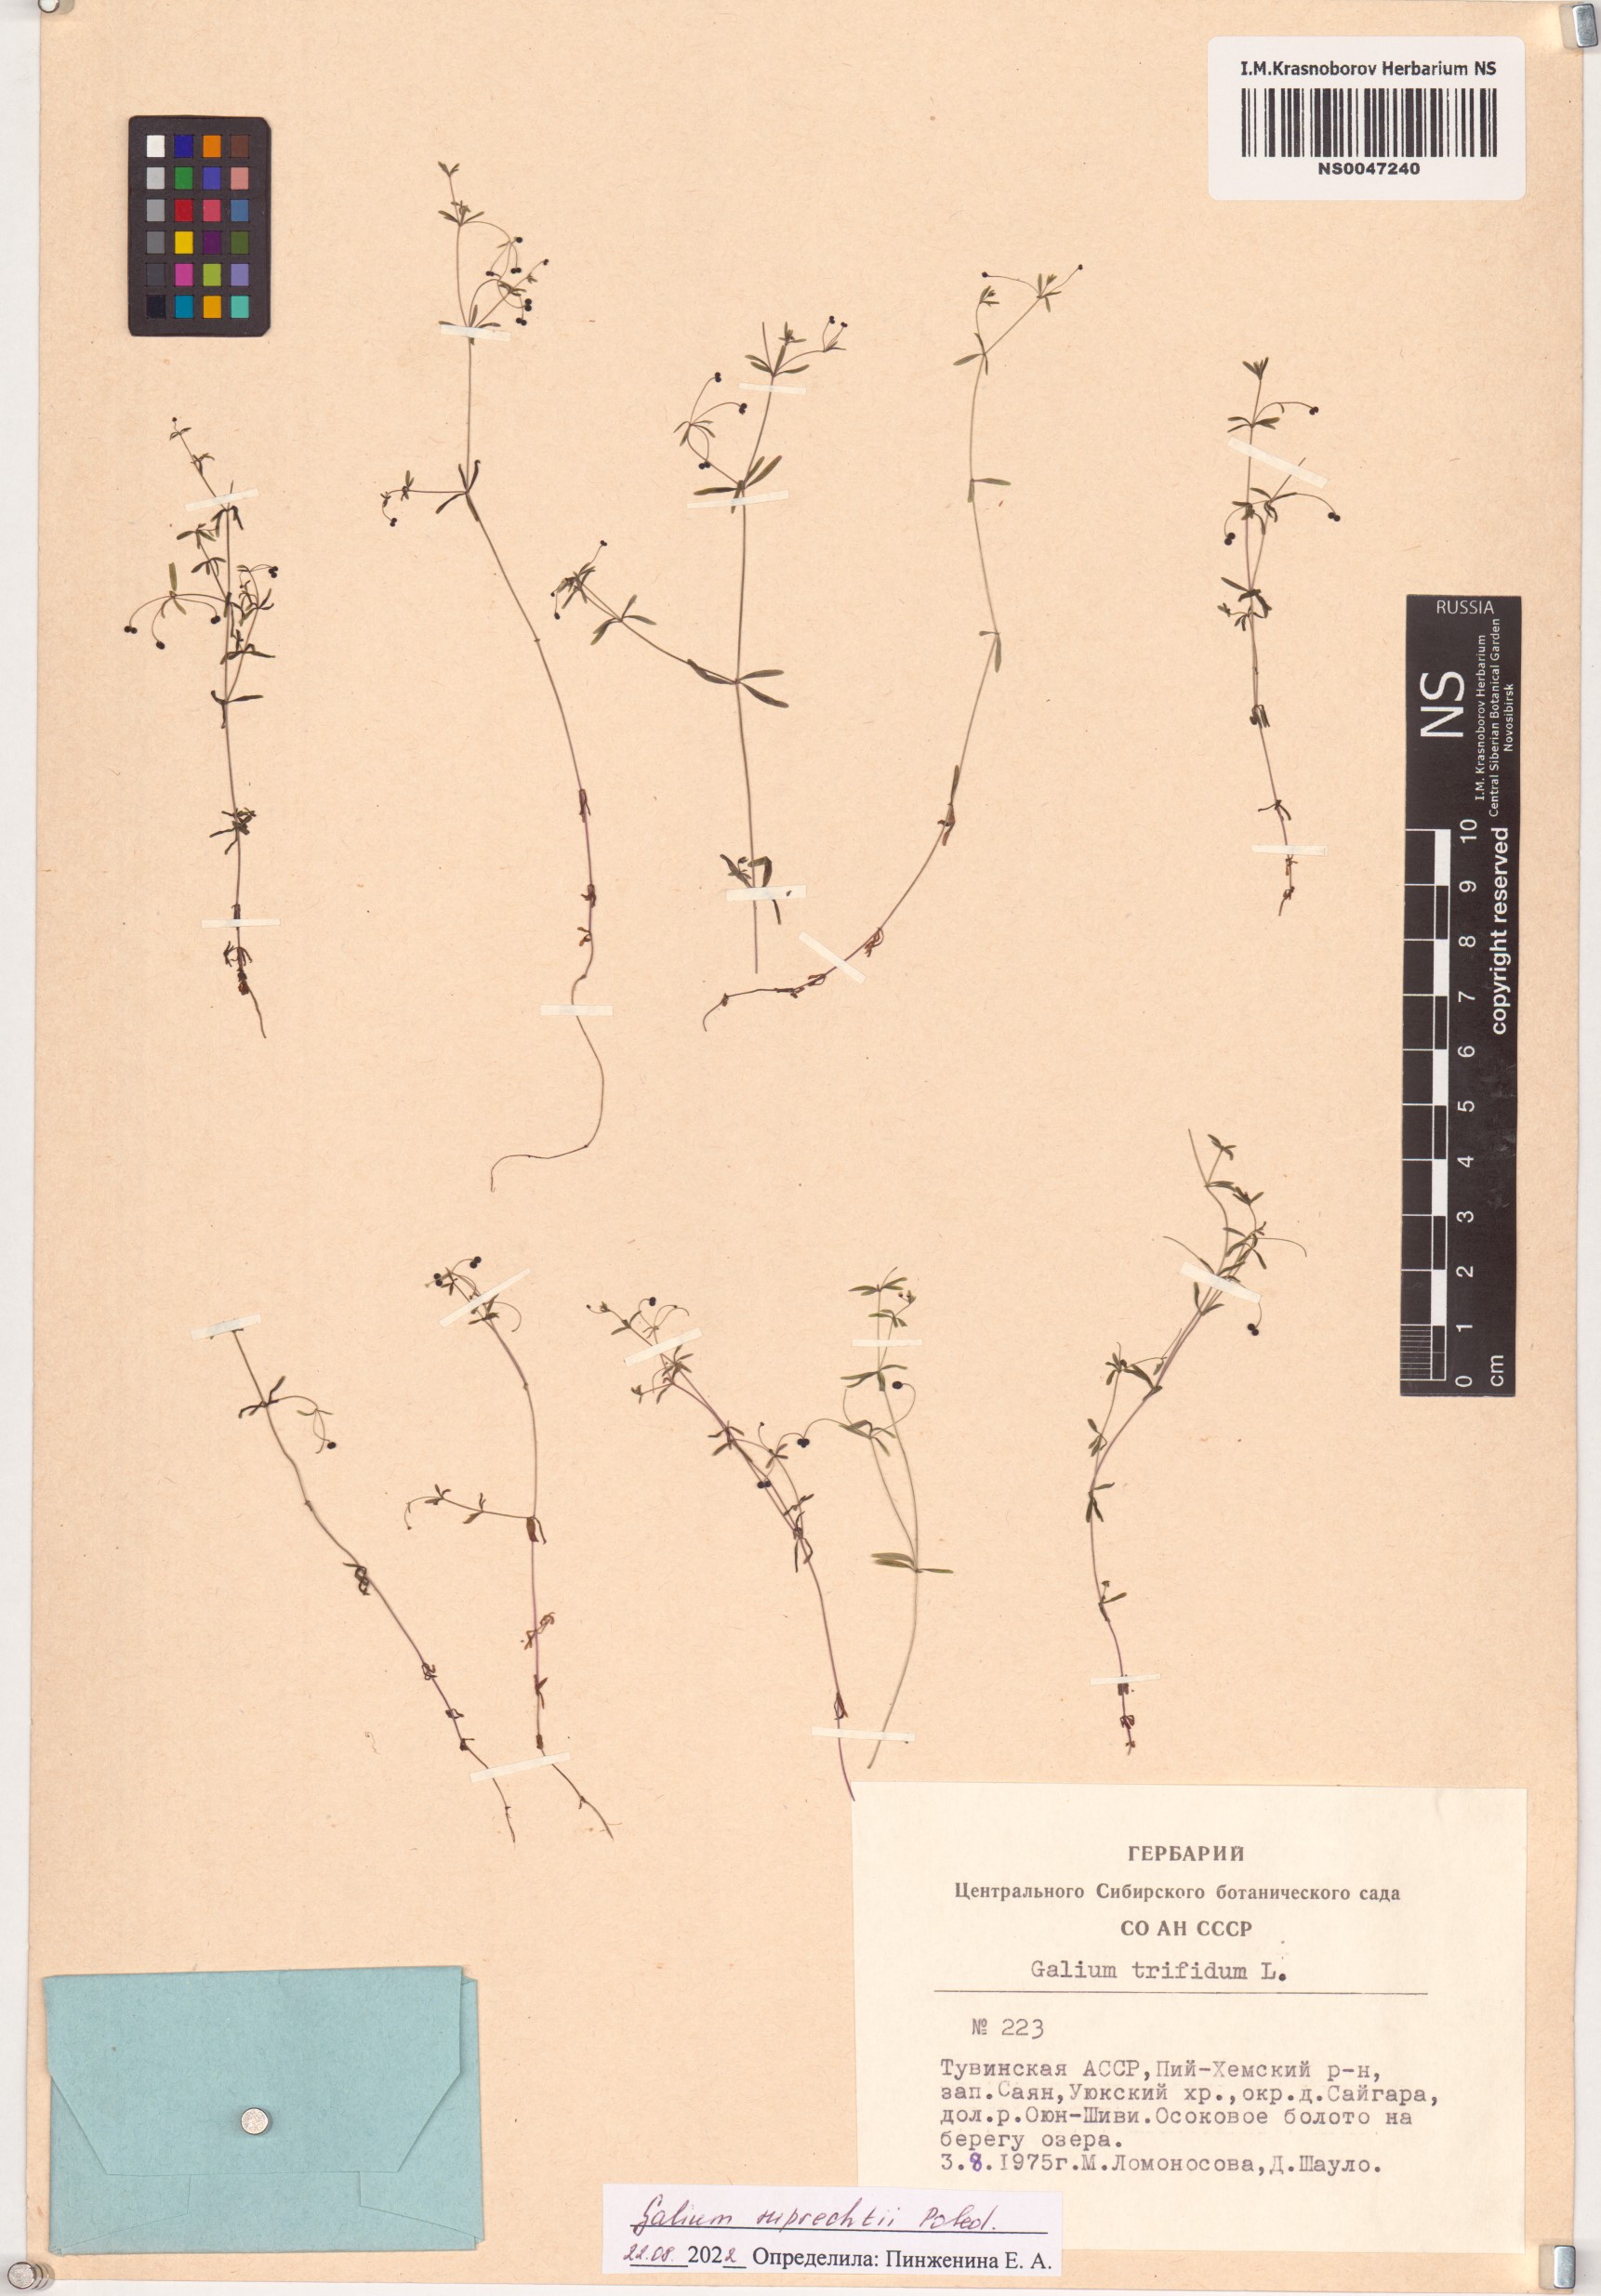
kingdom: Plantae
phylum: Tracheophyta
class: Magnoliopsida
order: Gentianales
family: Rubiaceae
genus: Galium
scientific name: Galium trifidum
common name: Small bedstraw
